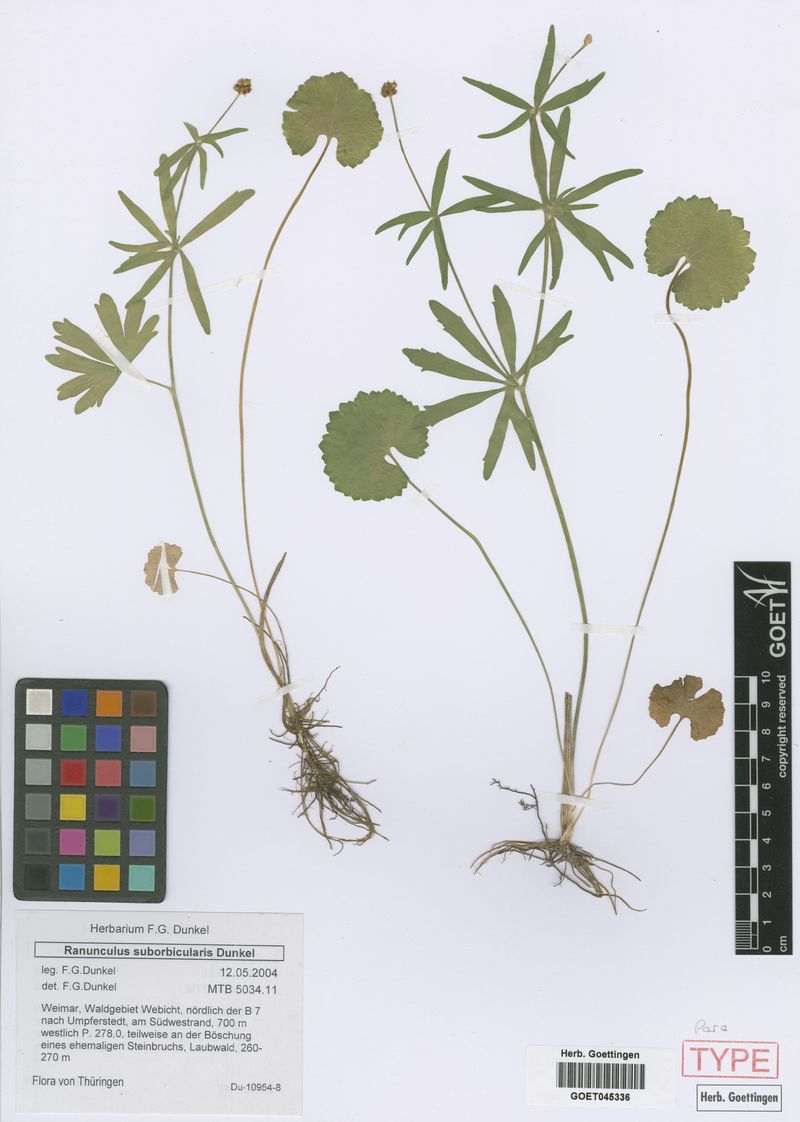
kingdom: Plantae
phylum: Tracheophyta
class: Magnoliopsida
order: Ranunculales
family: Ranunculaceae
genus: Ranunculus
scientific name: Ranunculus suborbicularis
